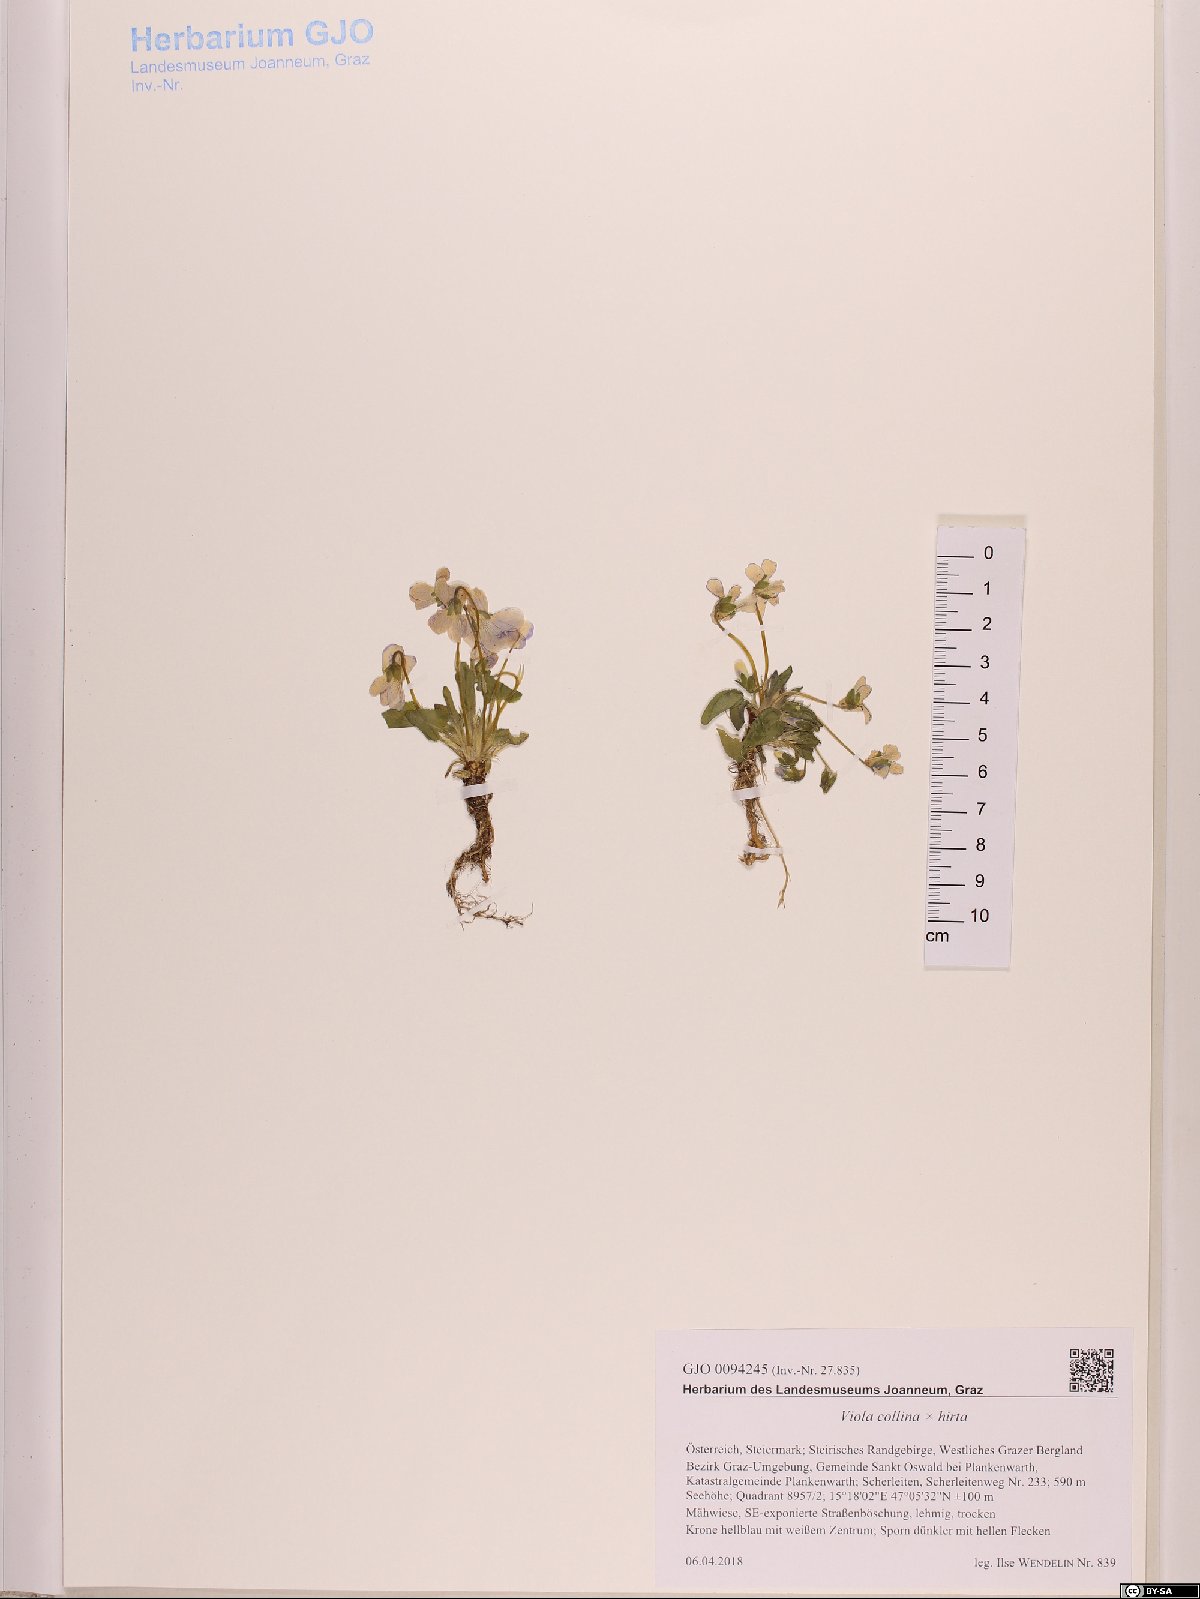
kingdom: Plantae
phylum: Tracheophyta
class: Magnoliopsida
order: Malpighiales
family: Violaceae
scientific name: Violaceae
